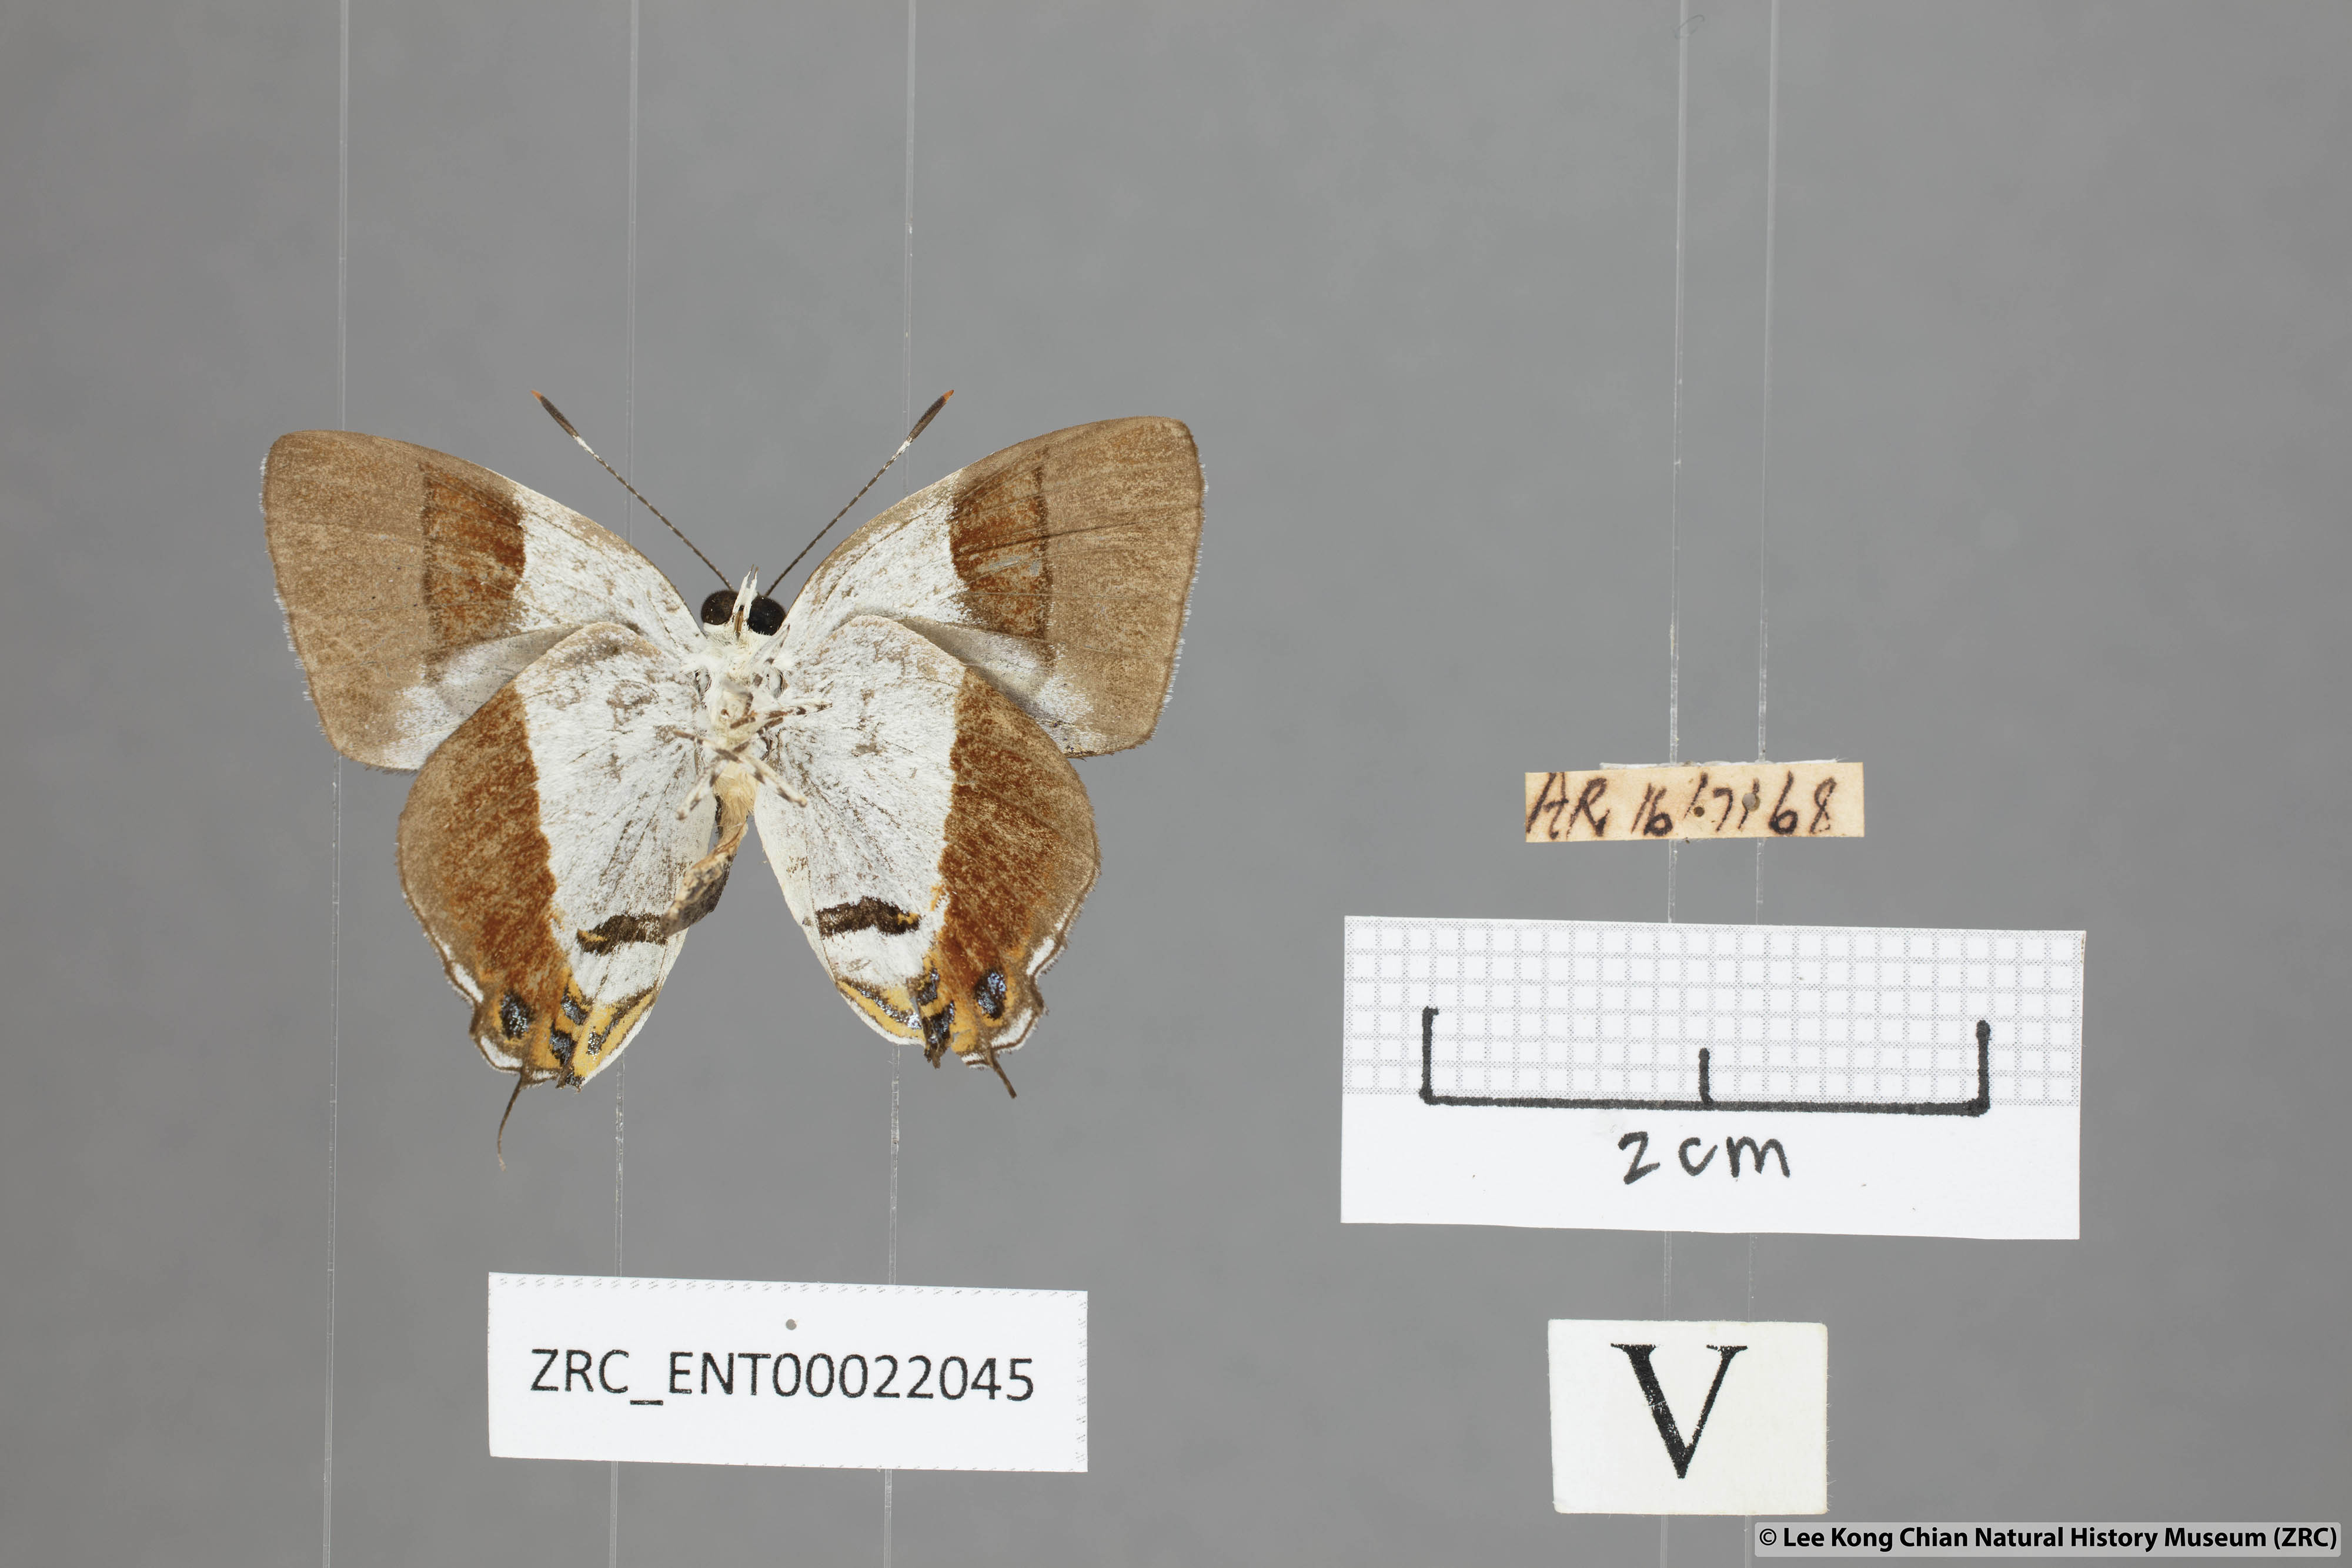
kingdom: Animalia
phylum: Arthropoda
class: Insecta
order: Lepidoptera
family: Lycaenidae
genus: Sithon
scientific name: Sithon nedymond
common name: Plush
